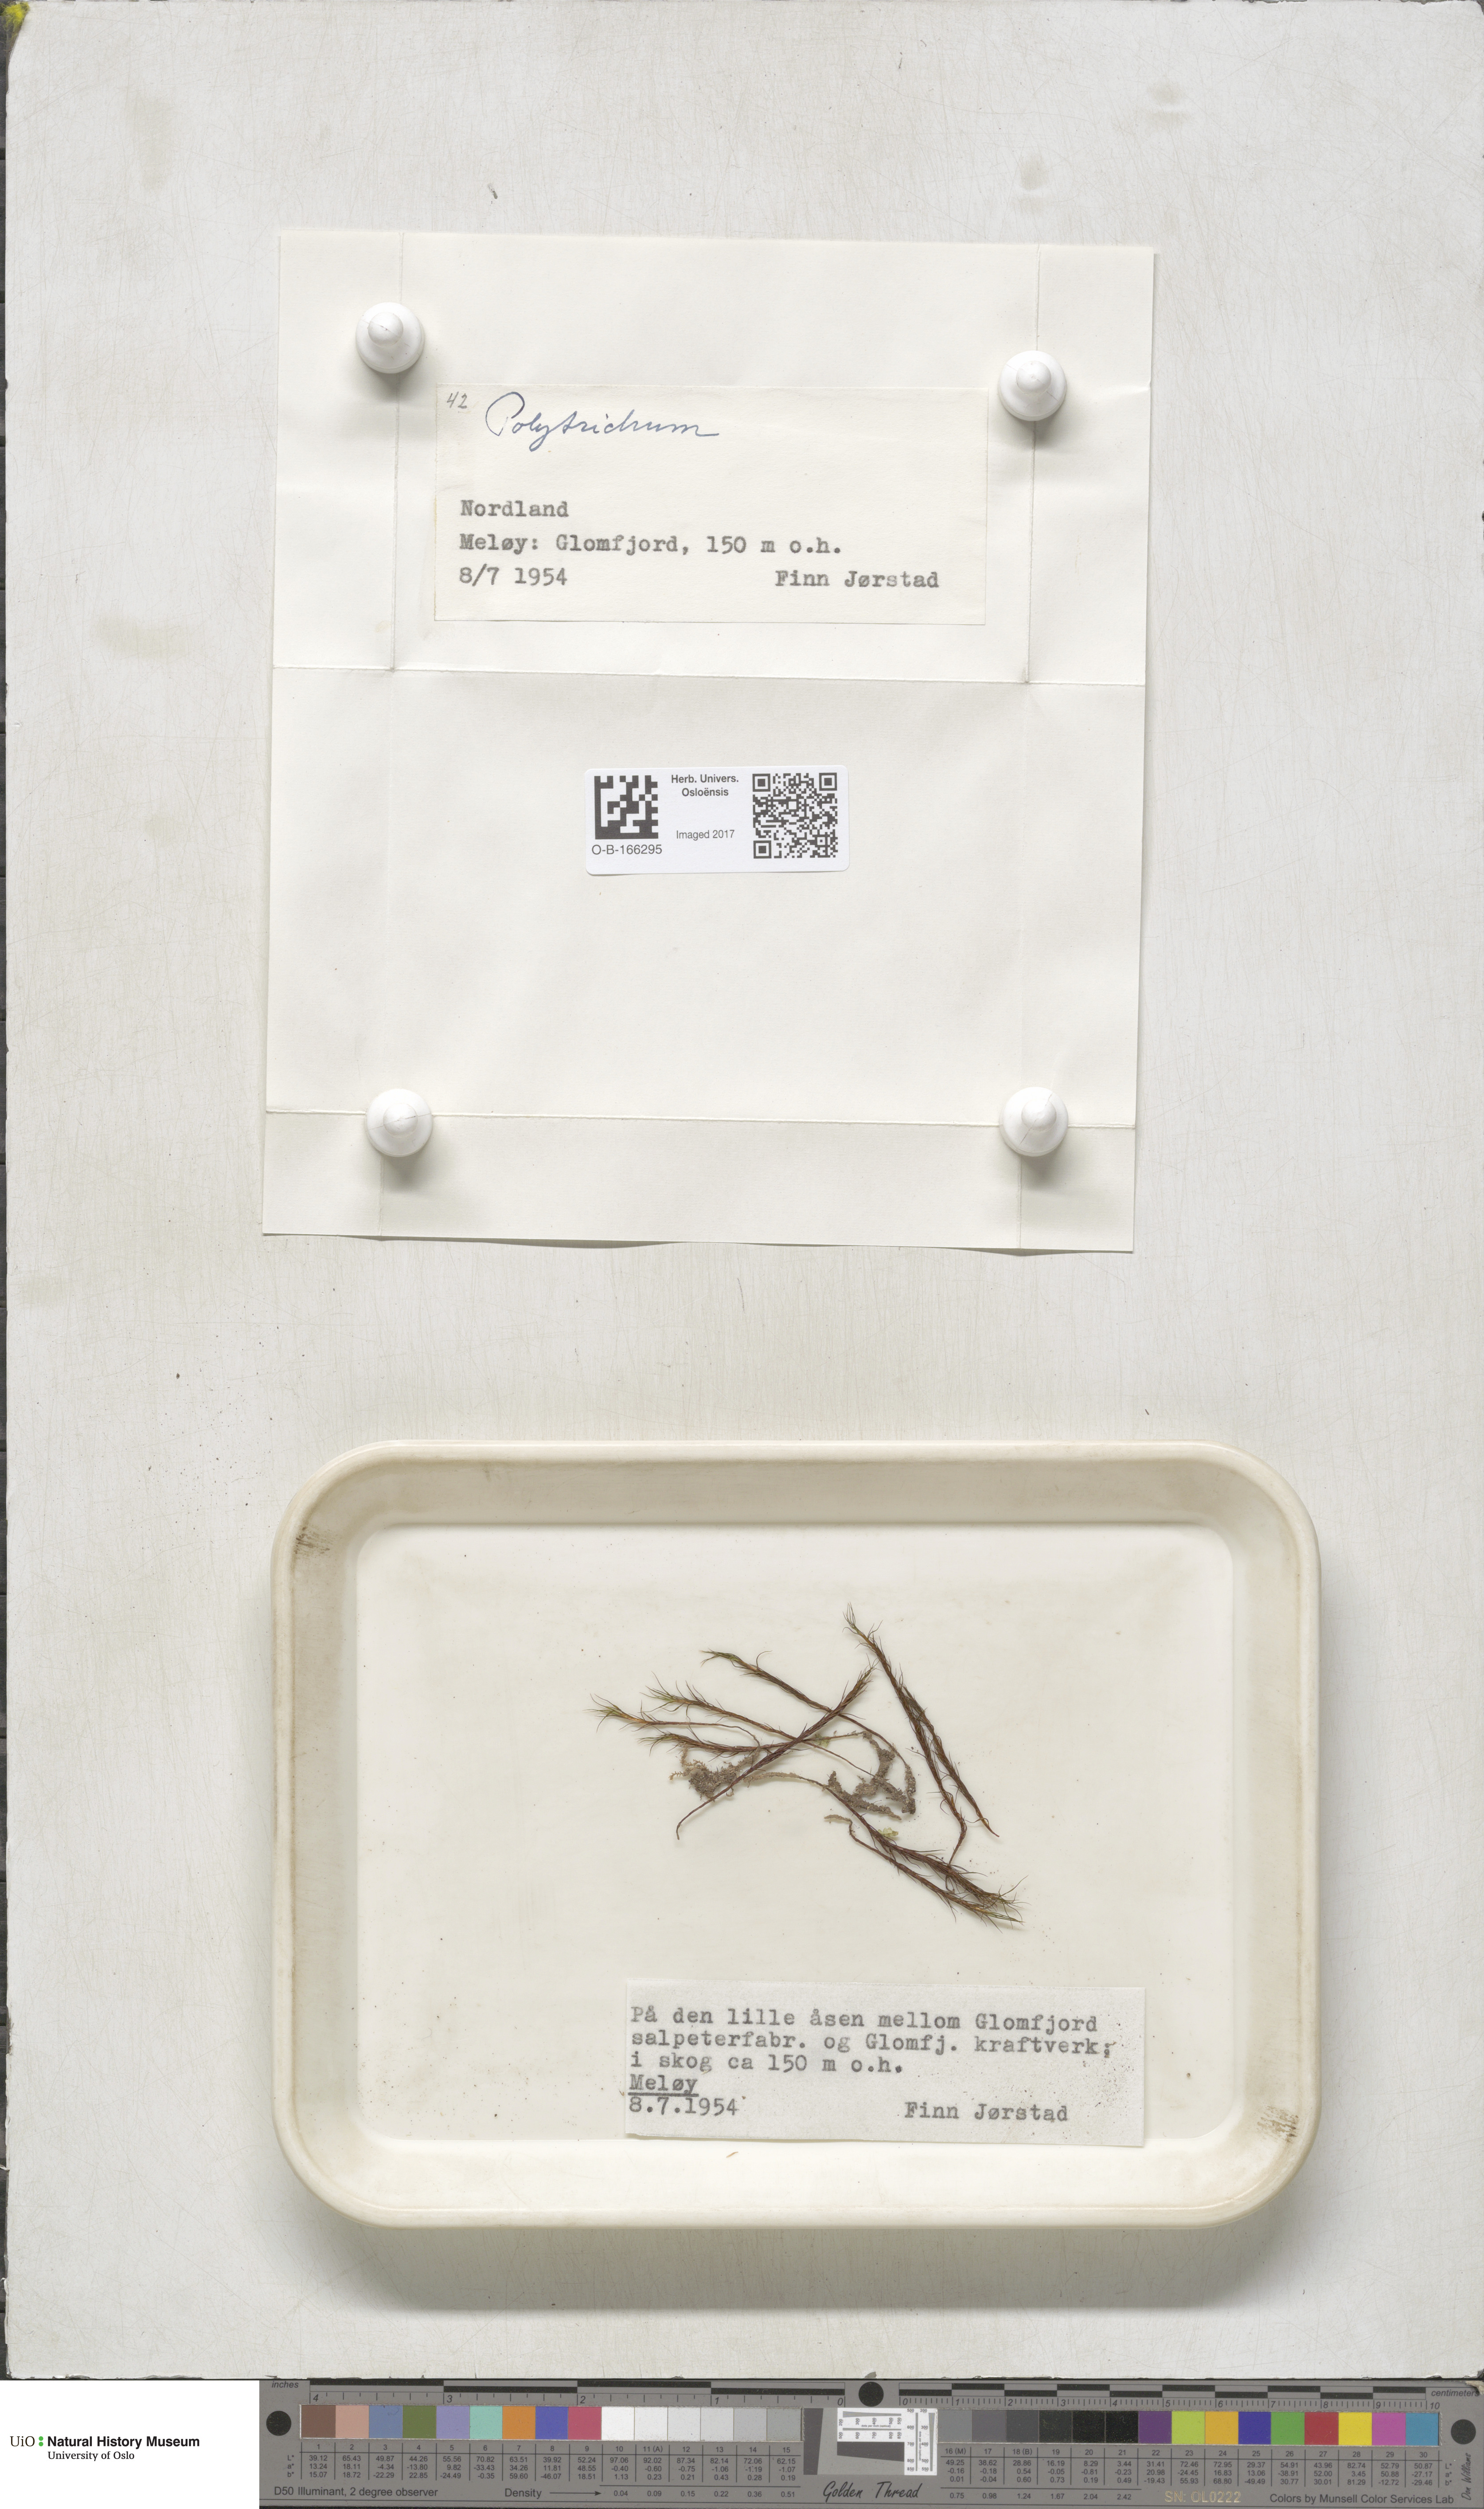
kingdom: Plantae
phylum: Bryophyta
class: Polytrichopsida
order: Polytrichales
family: Polytrichaceae
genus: Polytrichum
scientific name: Polytrichum
